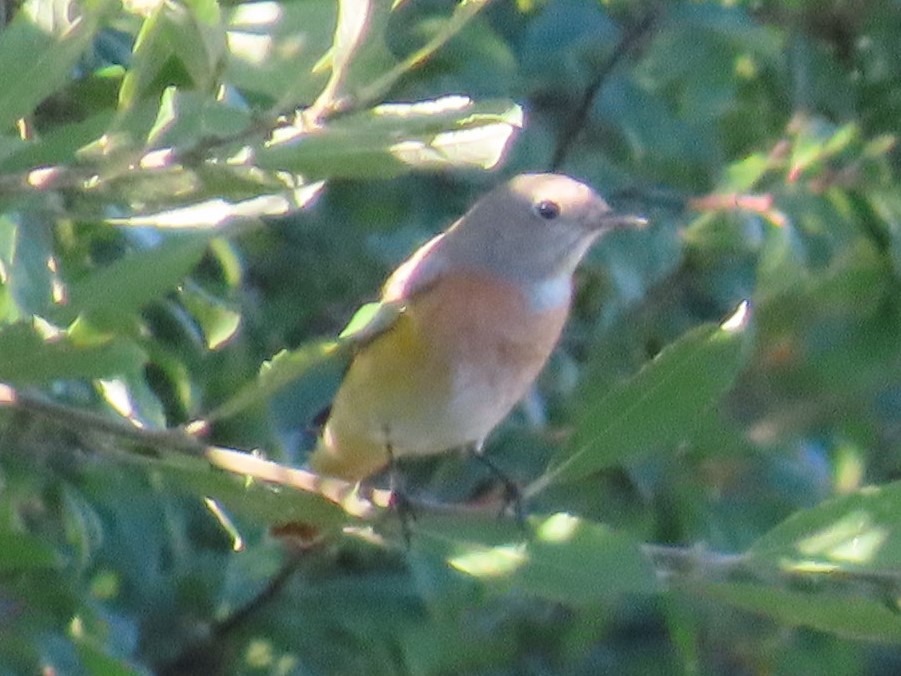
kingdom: Animalia
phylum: Chordata
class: Aves
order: Passeriformes
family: Muscicapidae
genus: Phoenicurus
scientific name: Phoenicurus phoenicurus
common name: Rødstjert
